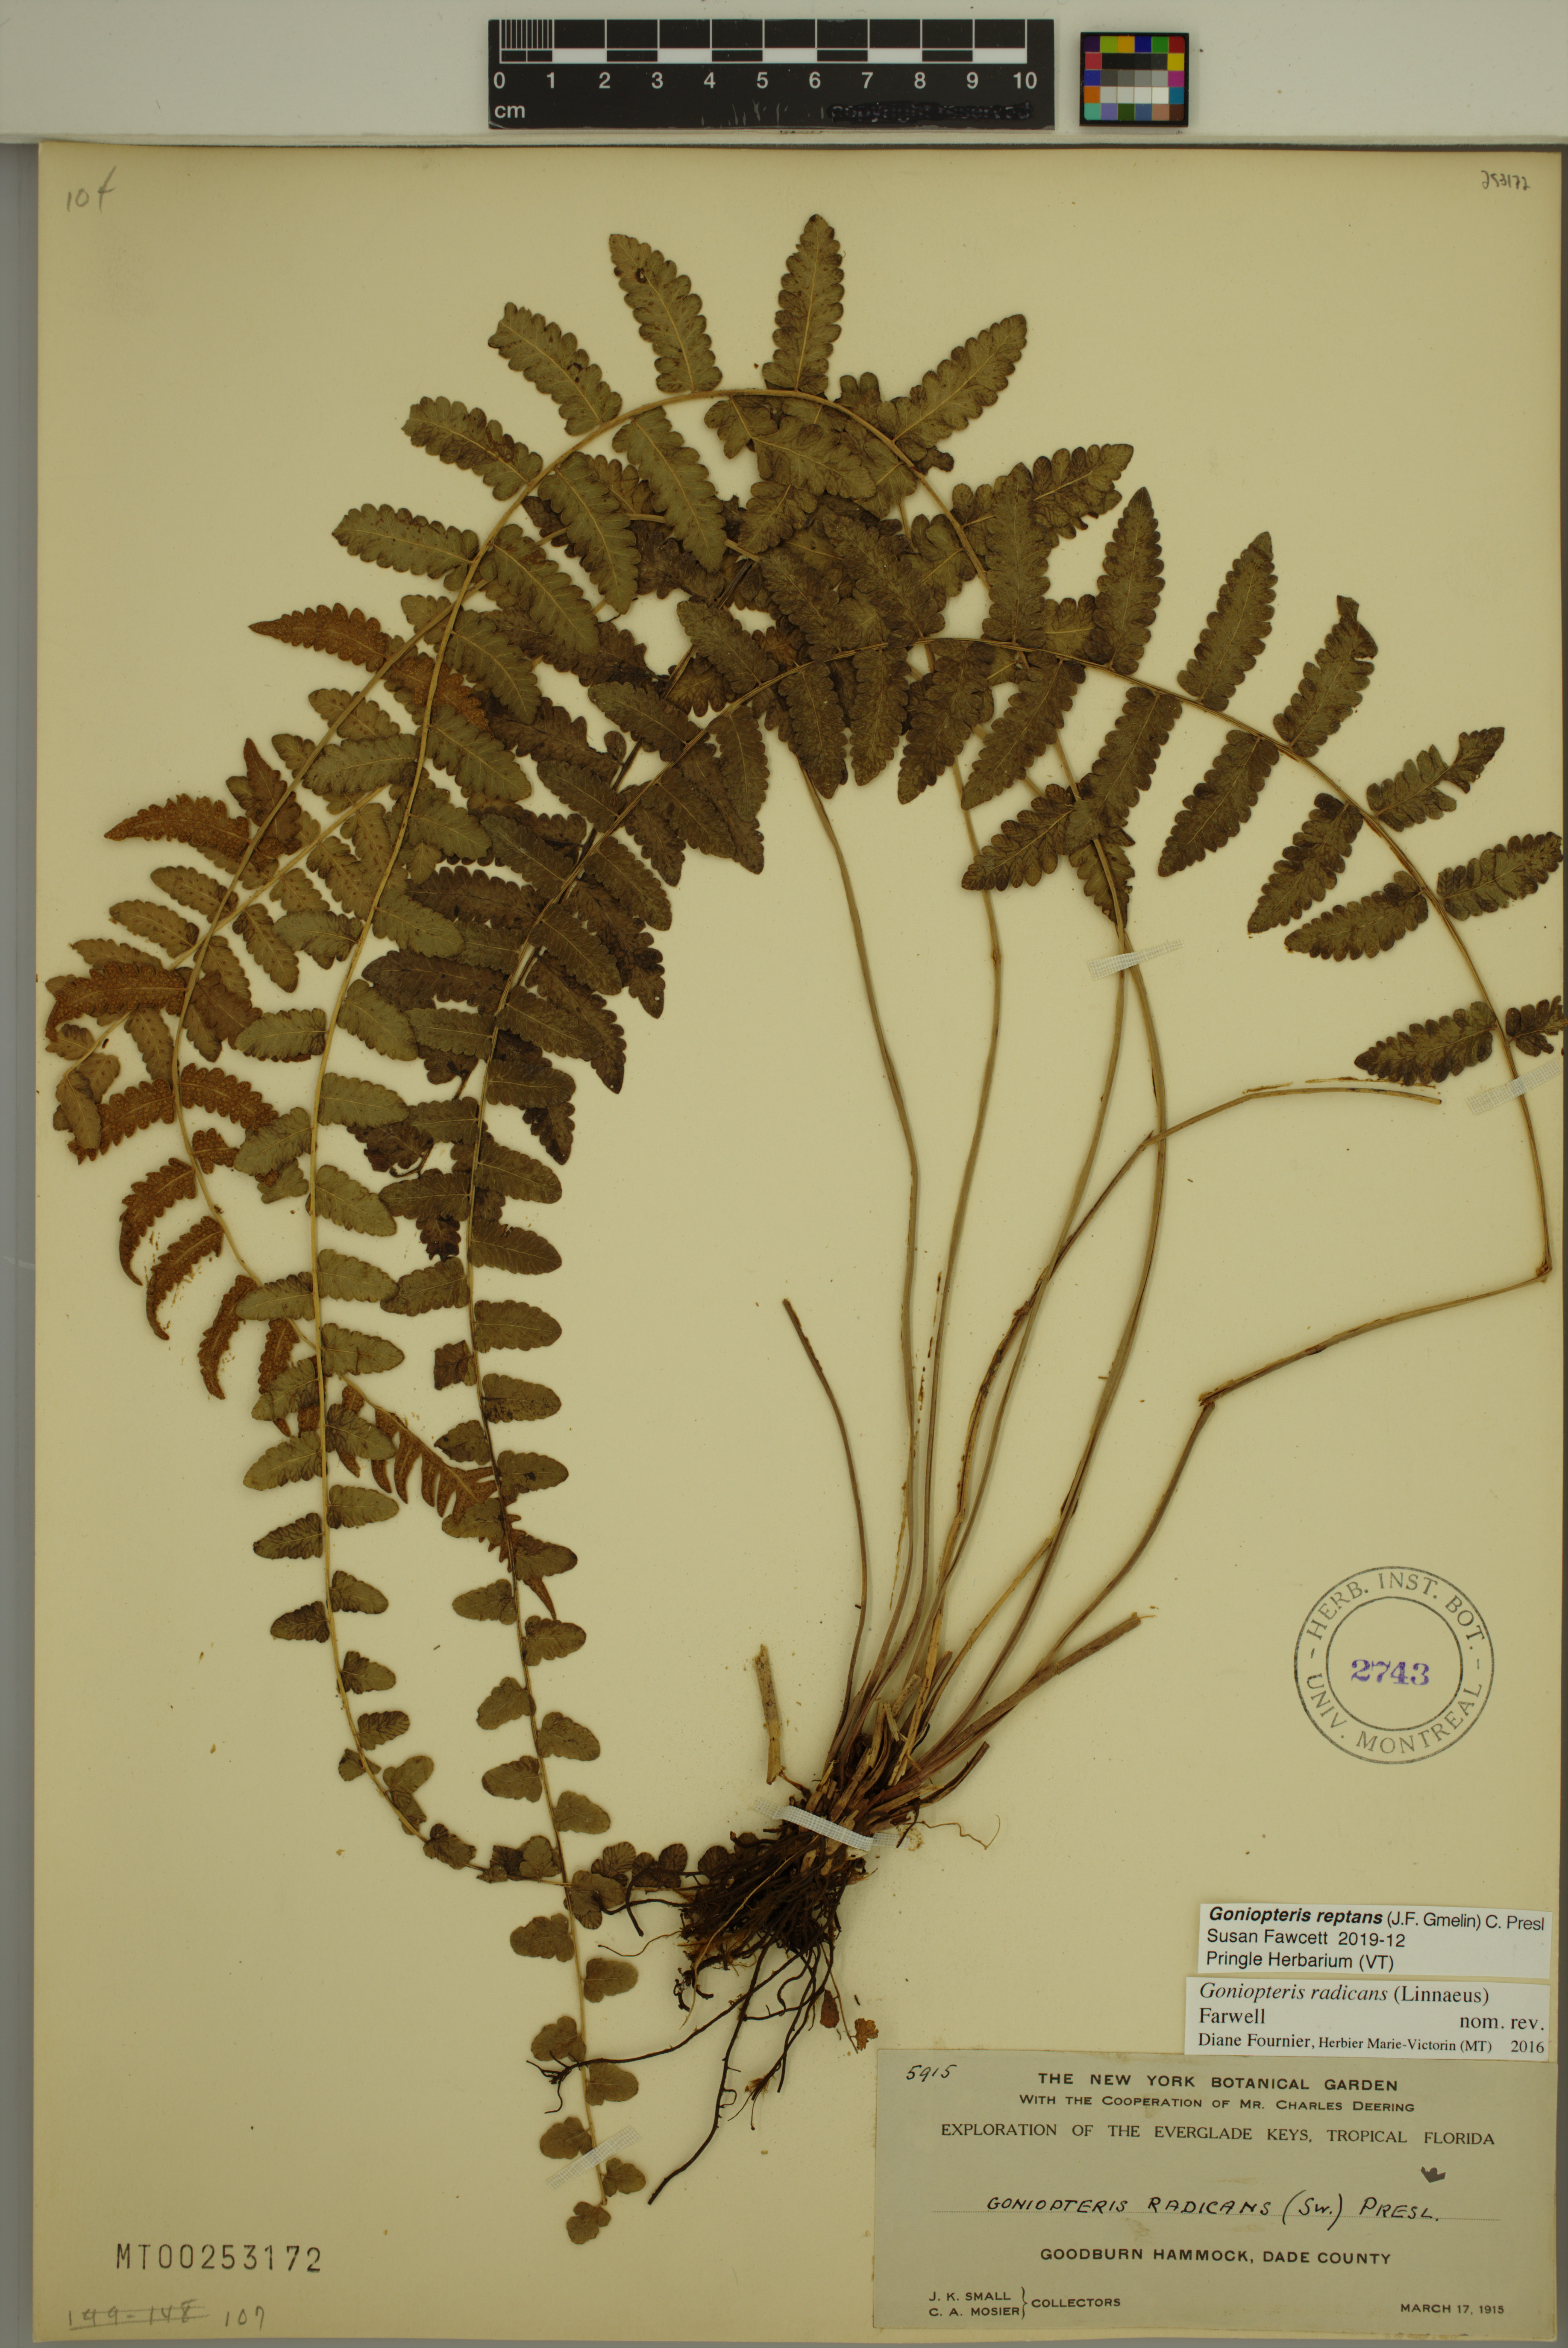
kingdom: Plantae
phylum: Tracheophyta
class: Polypodiopsida
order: Polypodiales
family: Thelypteridaceae
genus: Goniopteris
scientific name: Goniopteris reptans
